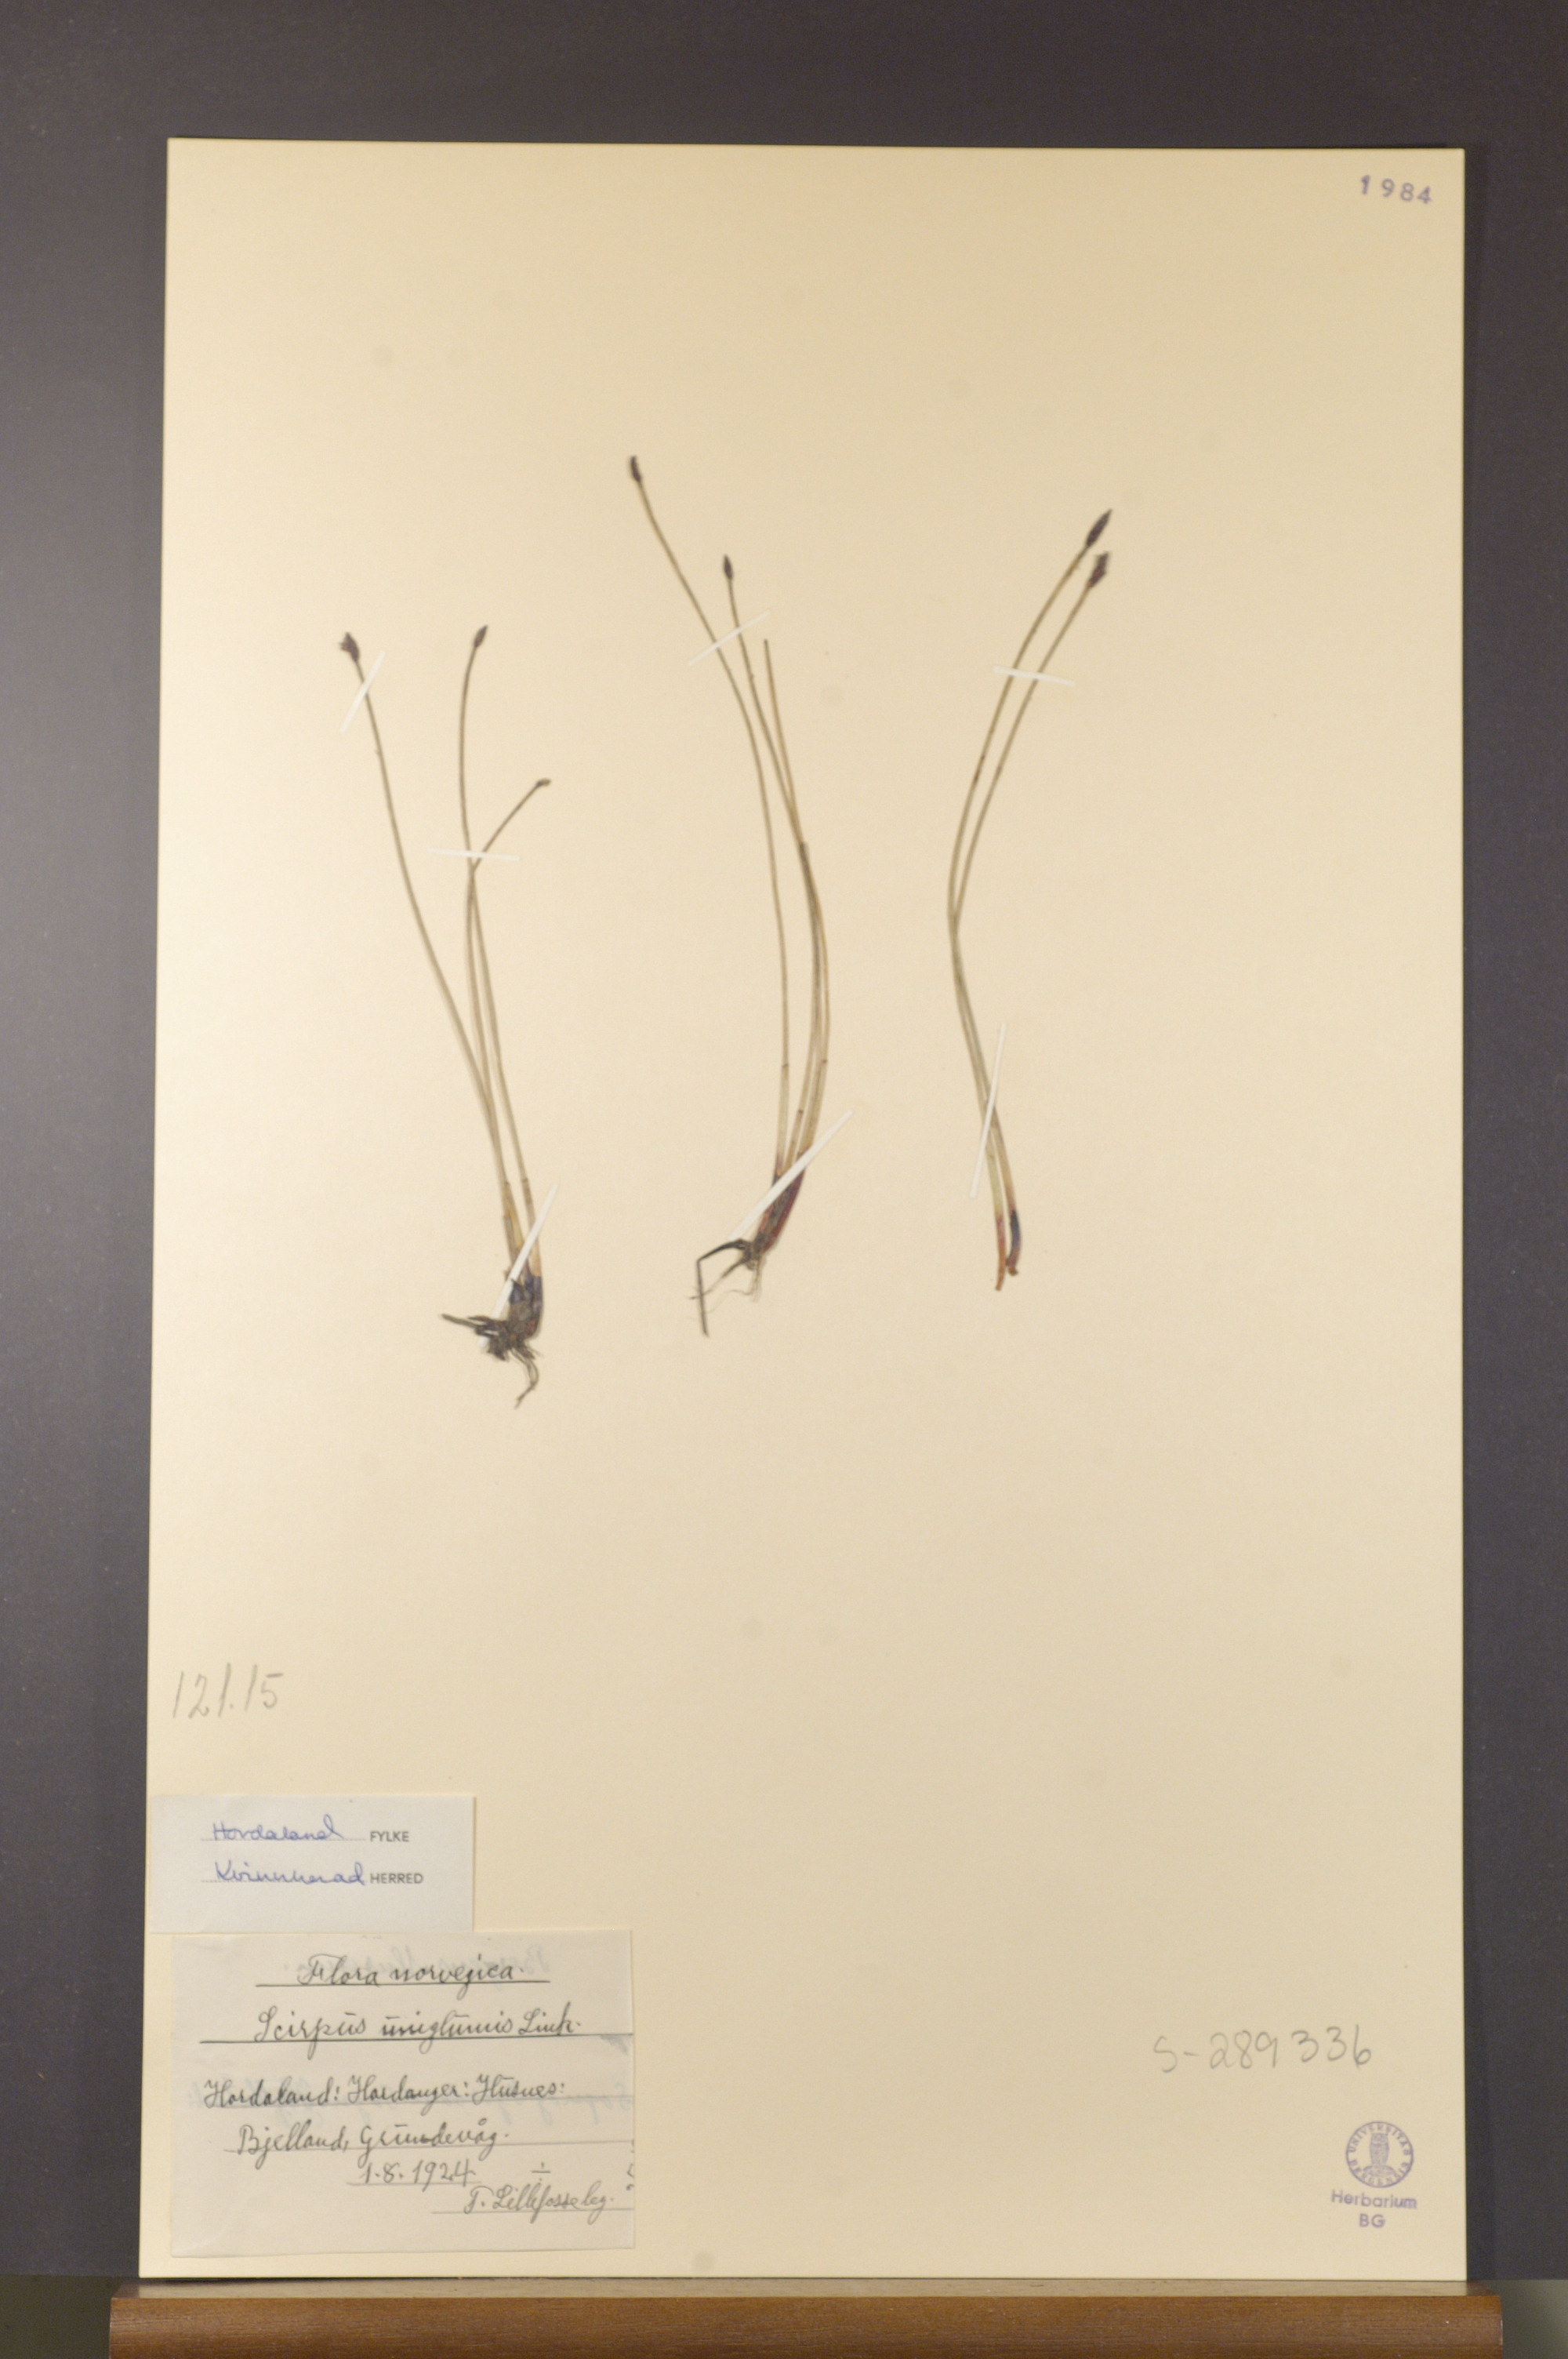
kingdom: Plantae
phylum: Tracheophyta
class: Liliopsida
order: Poales
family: Cyperaceae
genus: Eleocharis
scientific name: Eleocharis uniglumis
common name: Slender spike-rush
